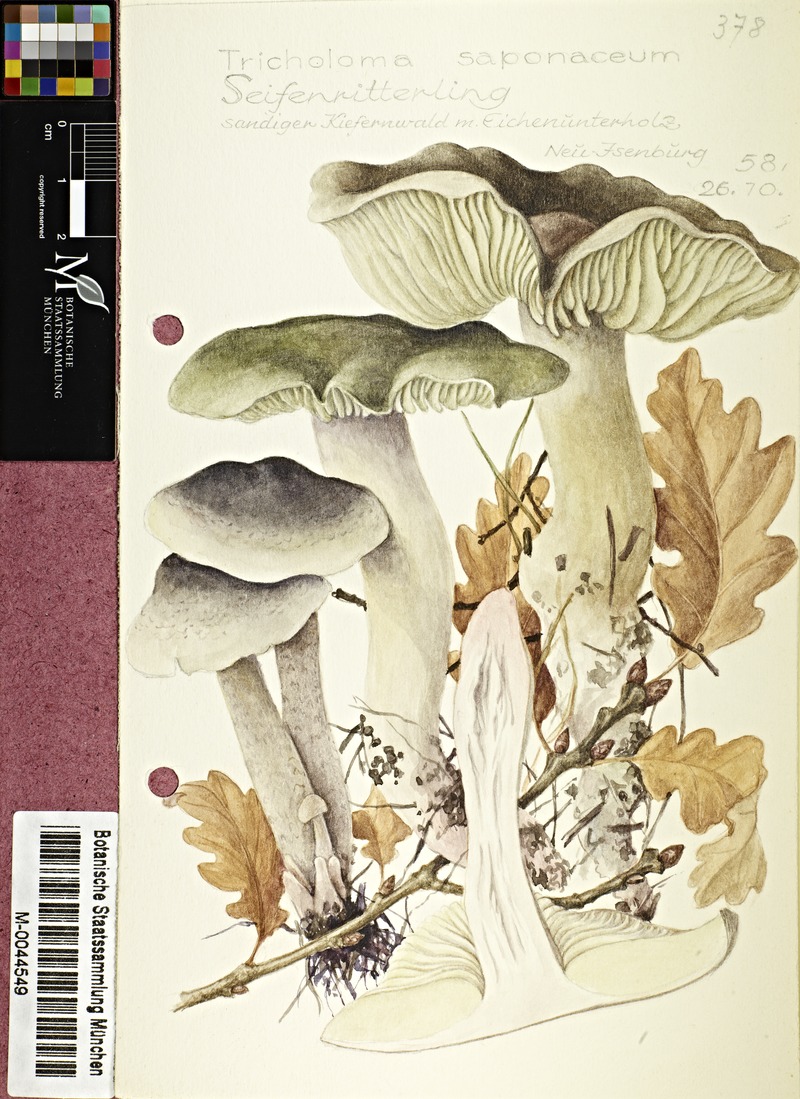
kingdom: Fungi
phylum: Basidiomycota
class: Agaricomycetes
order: Agaricales
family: Tricholomataceae
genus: Tricholoma
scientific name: Tricholoma saponaceum
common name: Soapy trich
